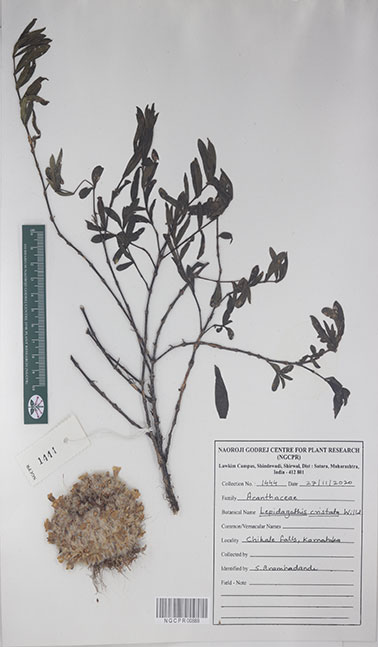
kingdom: Plantae
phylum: Tracheophyta
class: Magnoliopsida
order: Lamiales
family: Acanthaceae
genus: Lepidagathis
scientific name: Lepidagathis cristata
